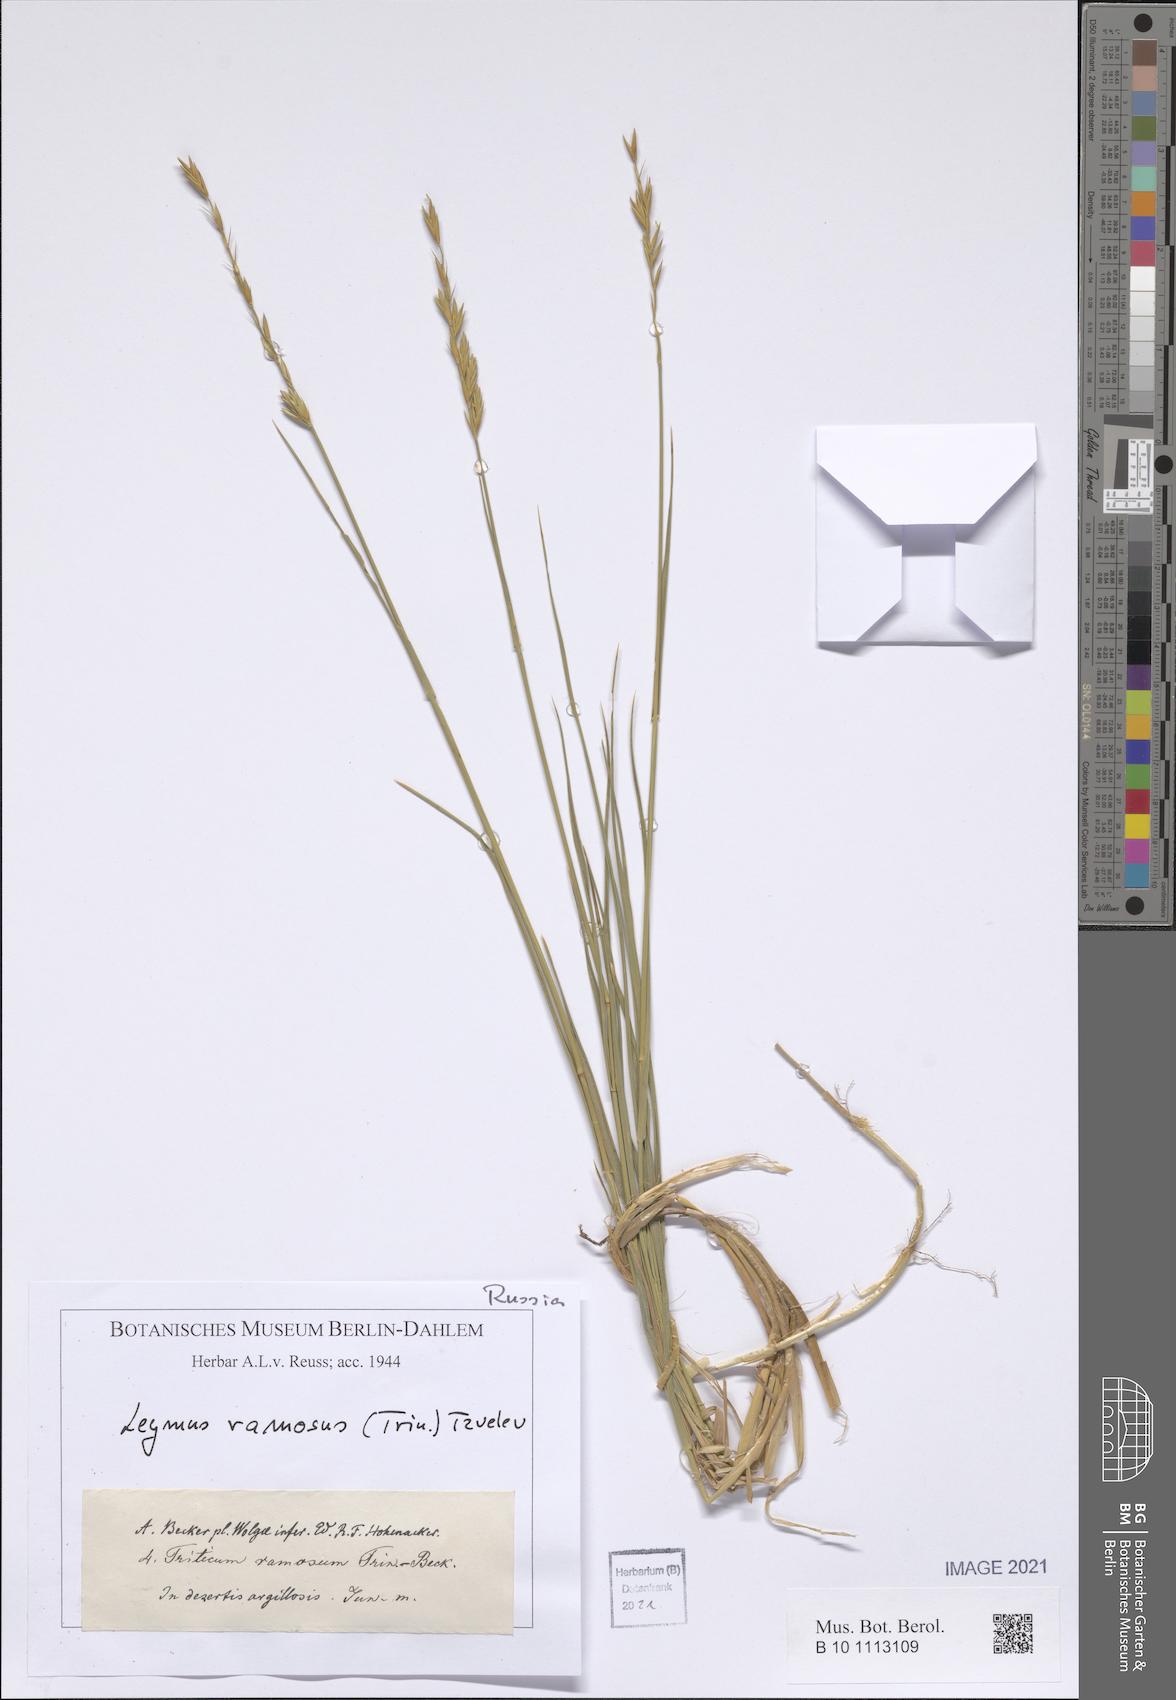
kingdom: Plantae
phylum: Tracheophyta
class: Liliopsida
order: Poales
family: Poaceae
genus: Leymus
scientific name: Leymus ramosus
